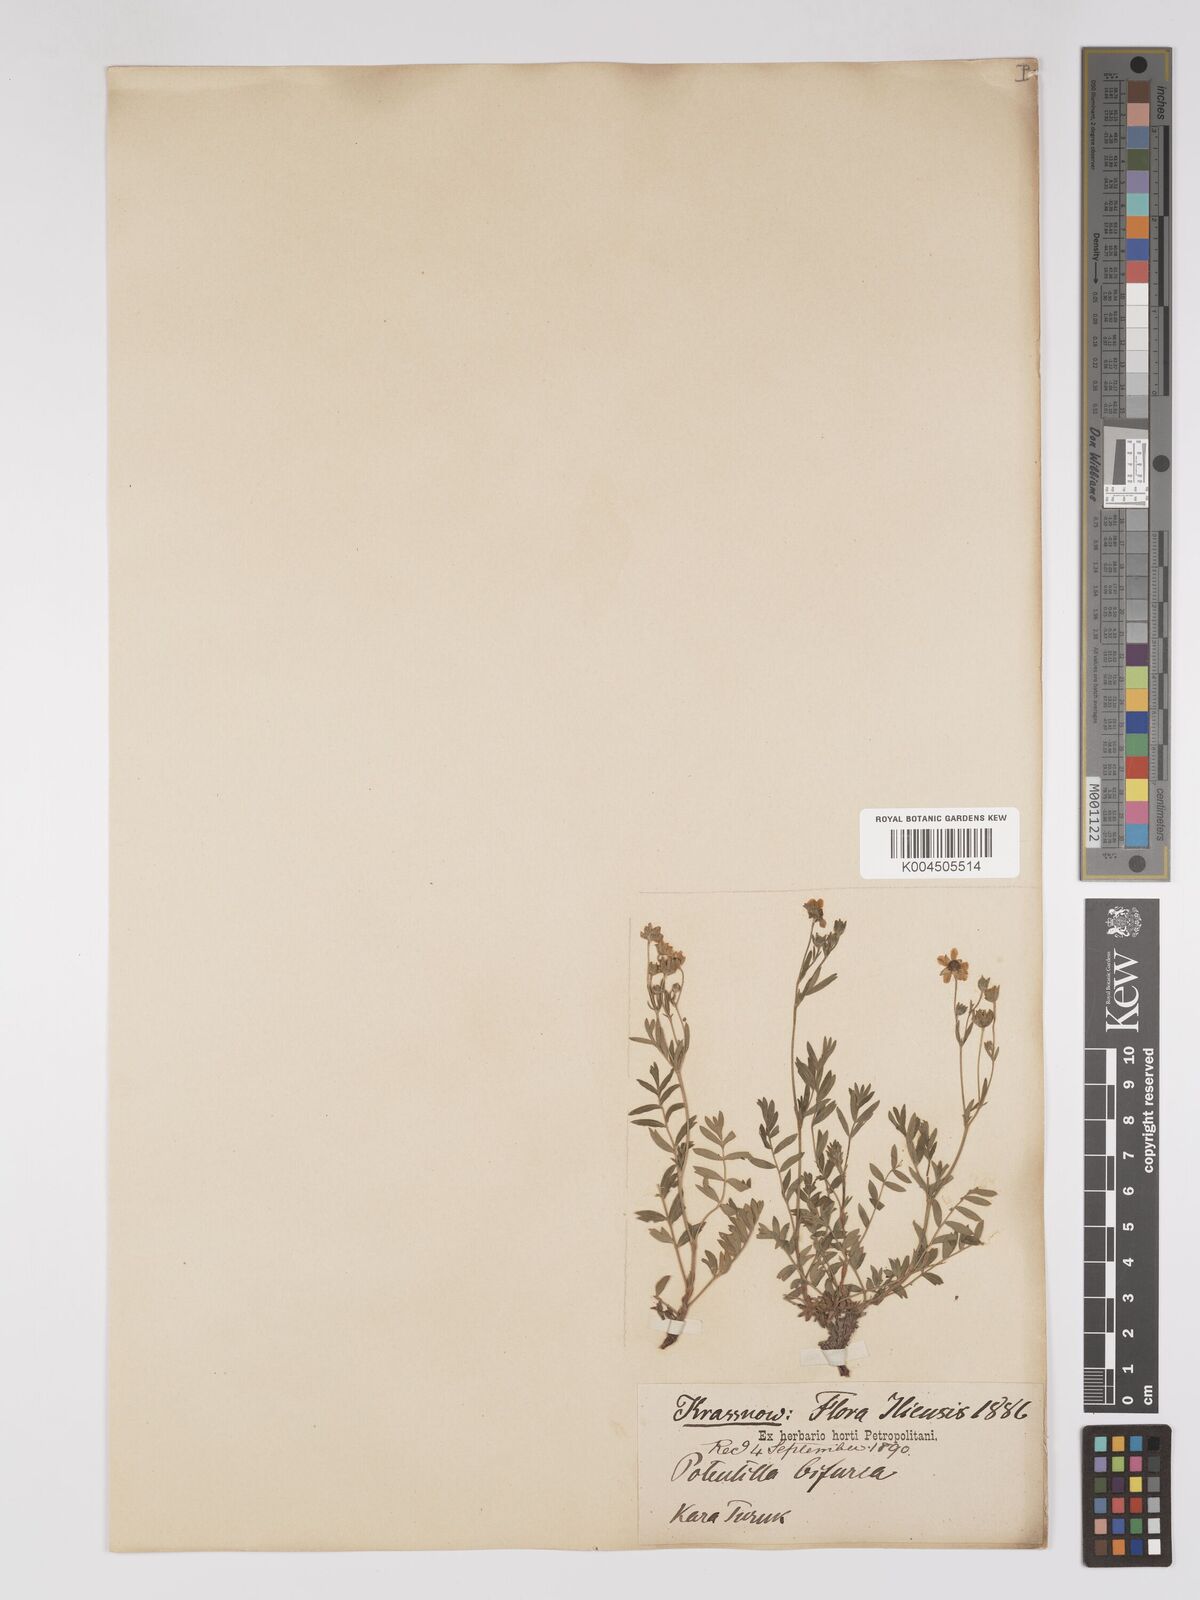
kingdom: Plantae
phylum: Tracheophyta
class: Magnoliopsida
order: Rosales
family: Rosaceae
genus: Sibbaldianthe
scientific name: Sibbaldianthe bifurca
